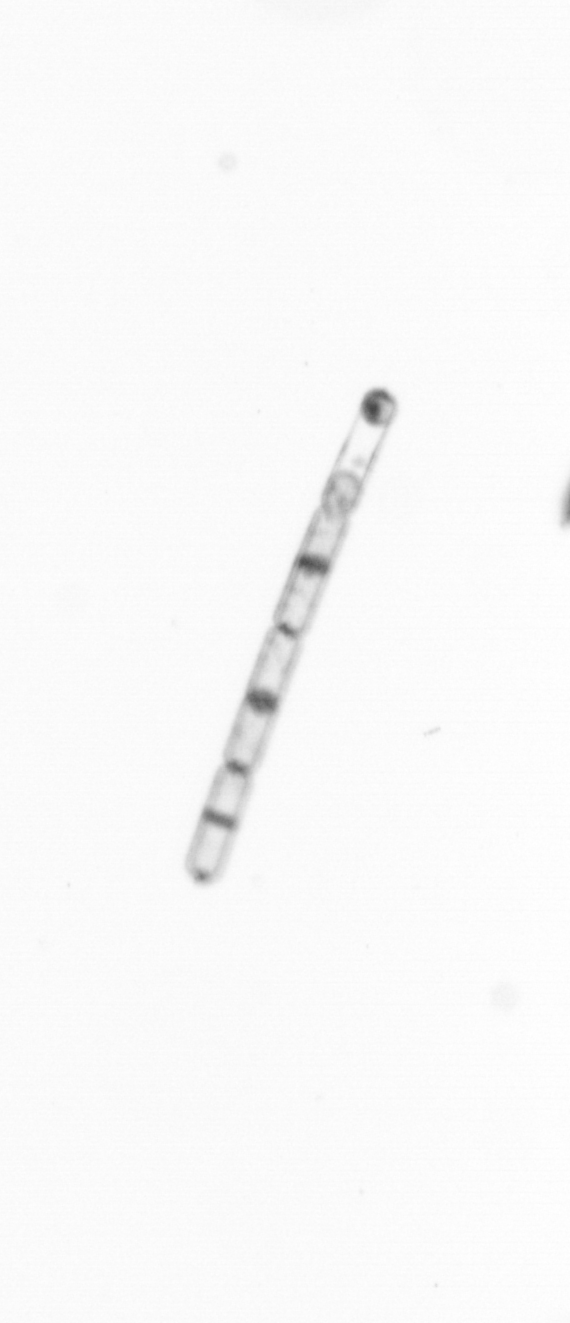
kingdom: Chromista
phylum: Ochrophyta
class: Bacillariophyceae
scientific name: Bacillariophyceae
